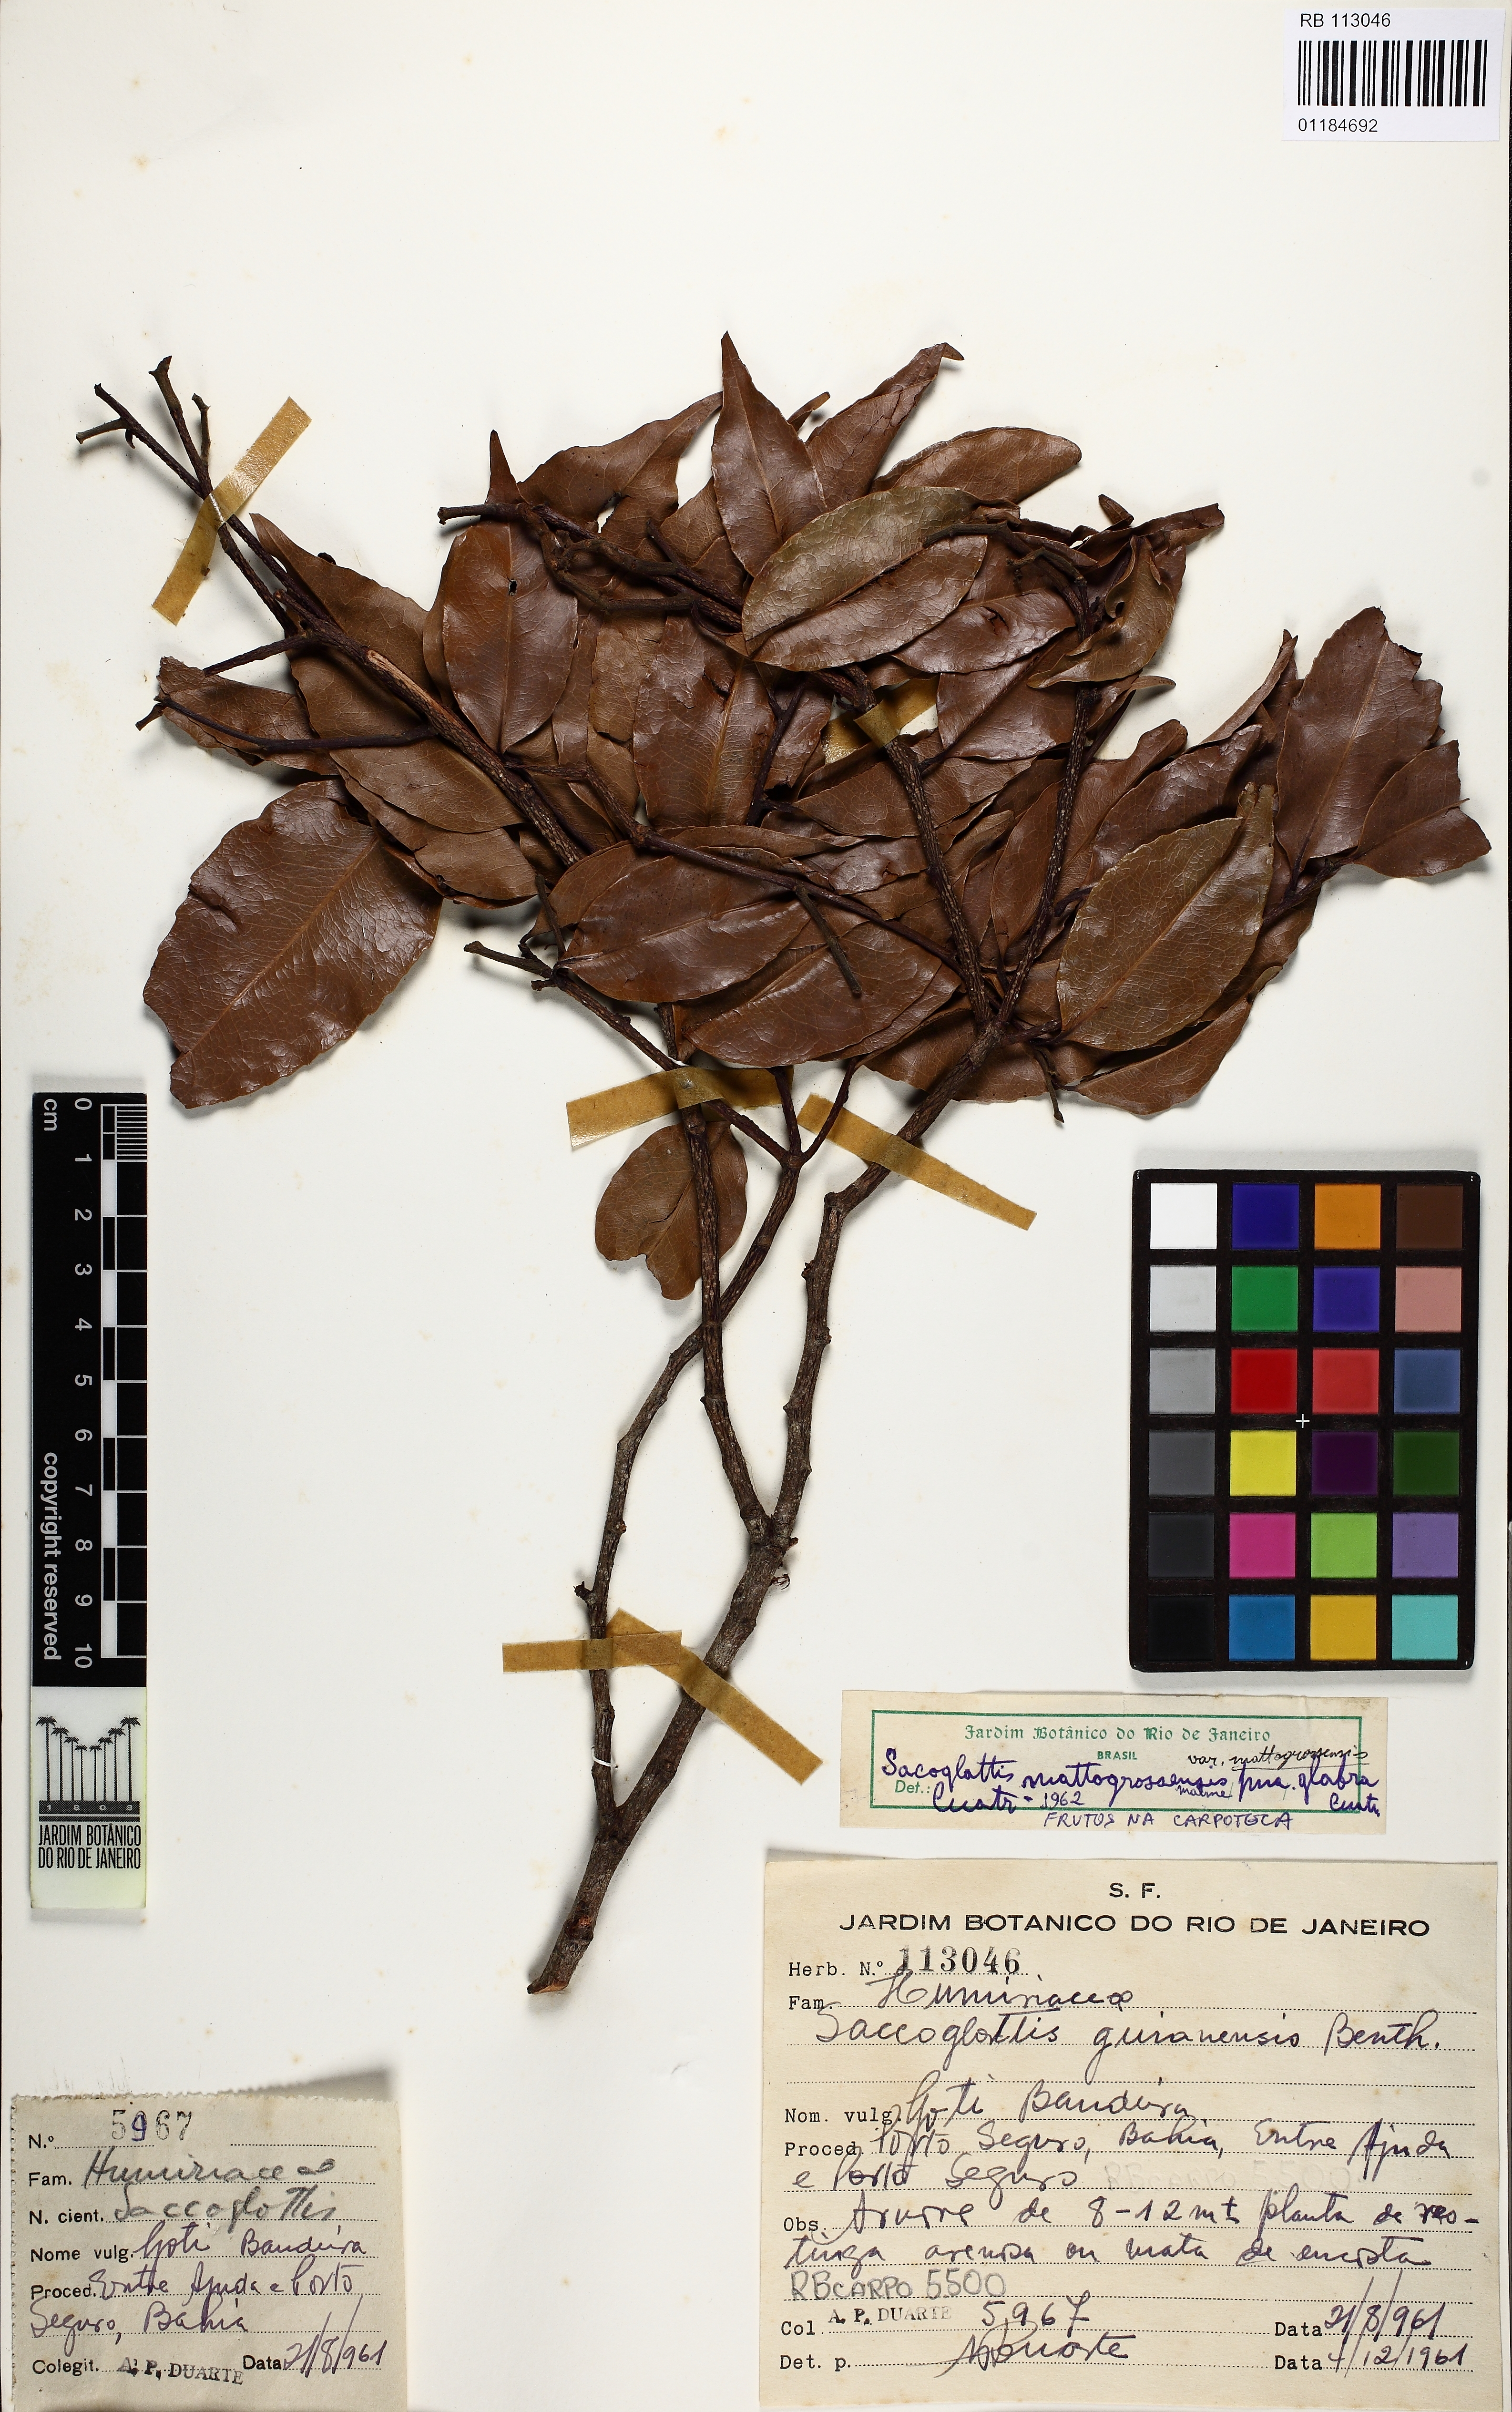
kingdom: Plantae
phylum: Tracheophyta
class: Magnoliopsida
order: Malpighiales
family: Humiriaceae
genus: Sacoglottis
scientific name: Sacoglottis mattogrossensis
